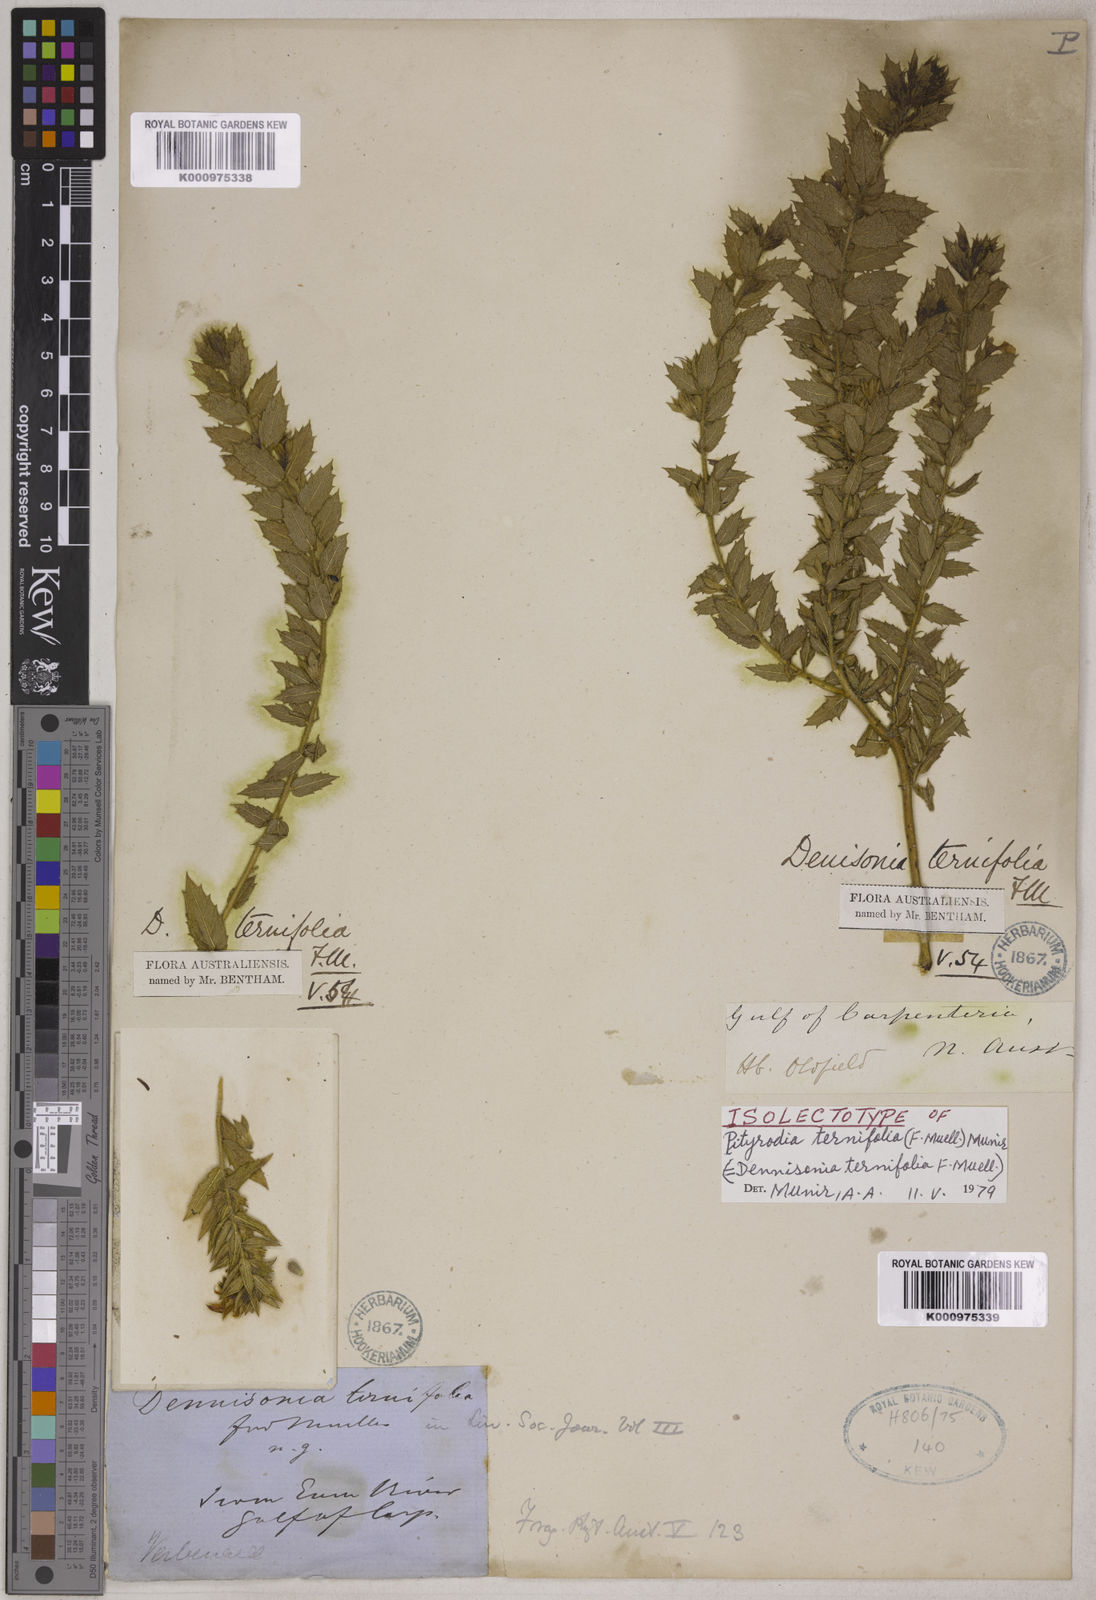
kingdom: Plantae
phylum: Tracheophyta
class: Magnoliopsida
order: Lamiales
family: Lamiaceae
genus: Pityrodia
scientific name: Pityrodia ternifolia
